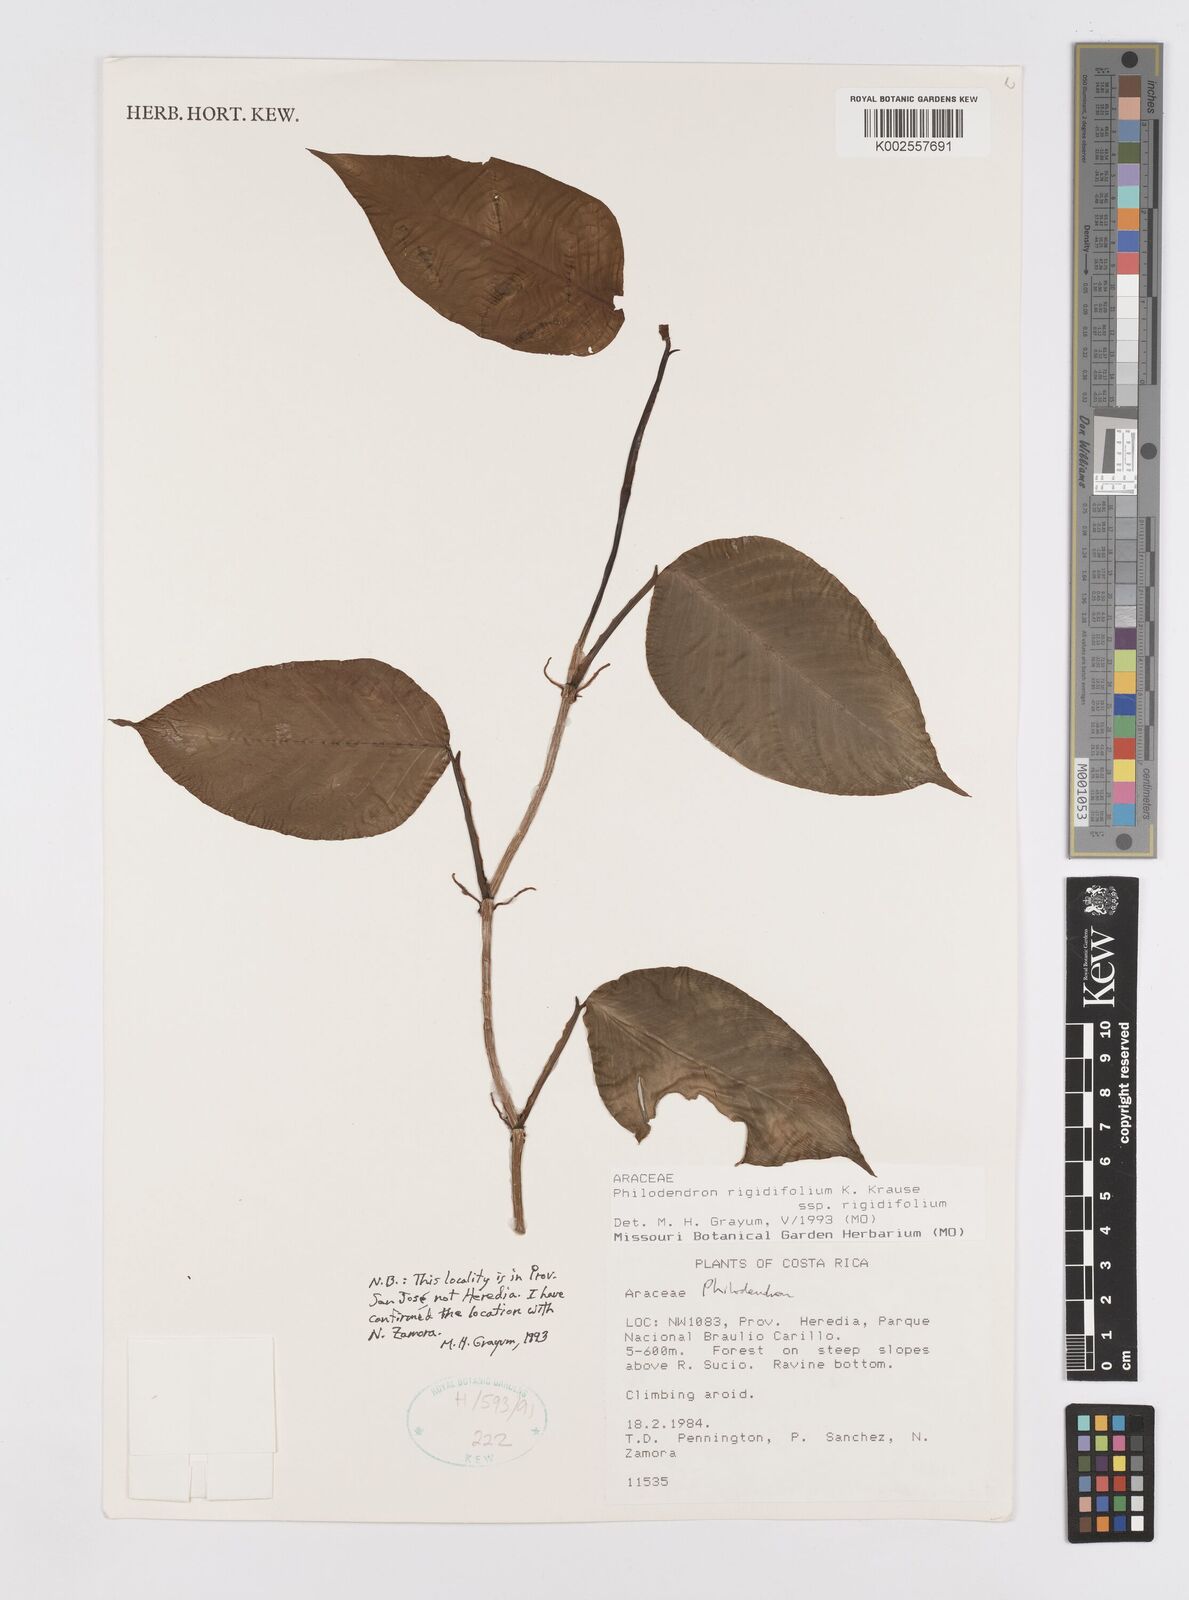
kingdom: Plantae
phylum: Tracheophyta
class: Liliopsida
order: Alismatales
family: Araceae
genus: Philodendron
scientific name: Philodendron rigidifolium
